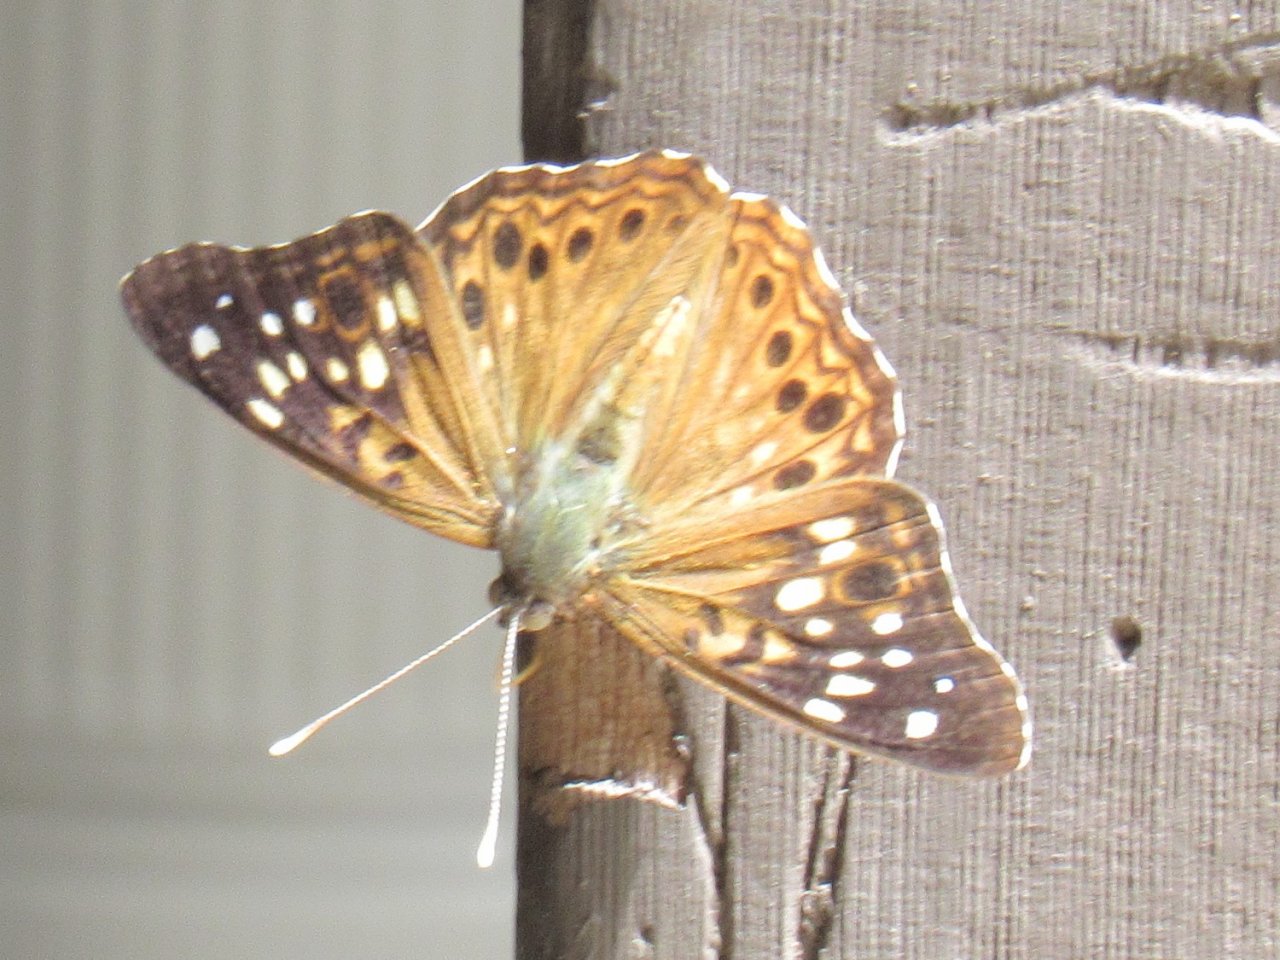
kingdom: Animalia
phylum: Arthropoda
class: Insecta
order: Lepidoptera
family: Nymphalidae
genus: Asterocampa
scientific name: Asterocampa celtis
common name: Hackberry Emperor
